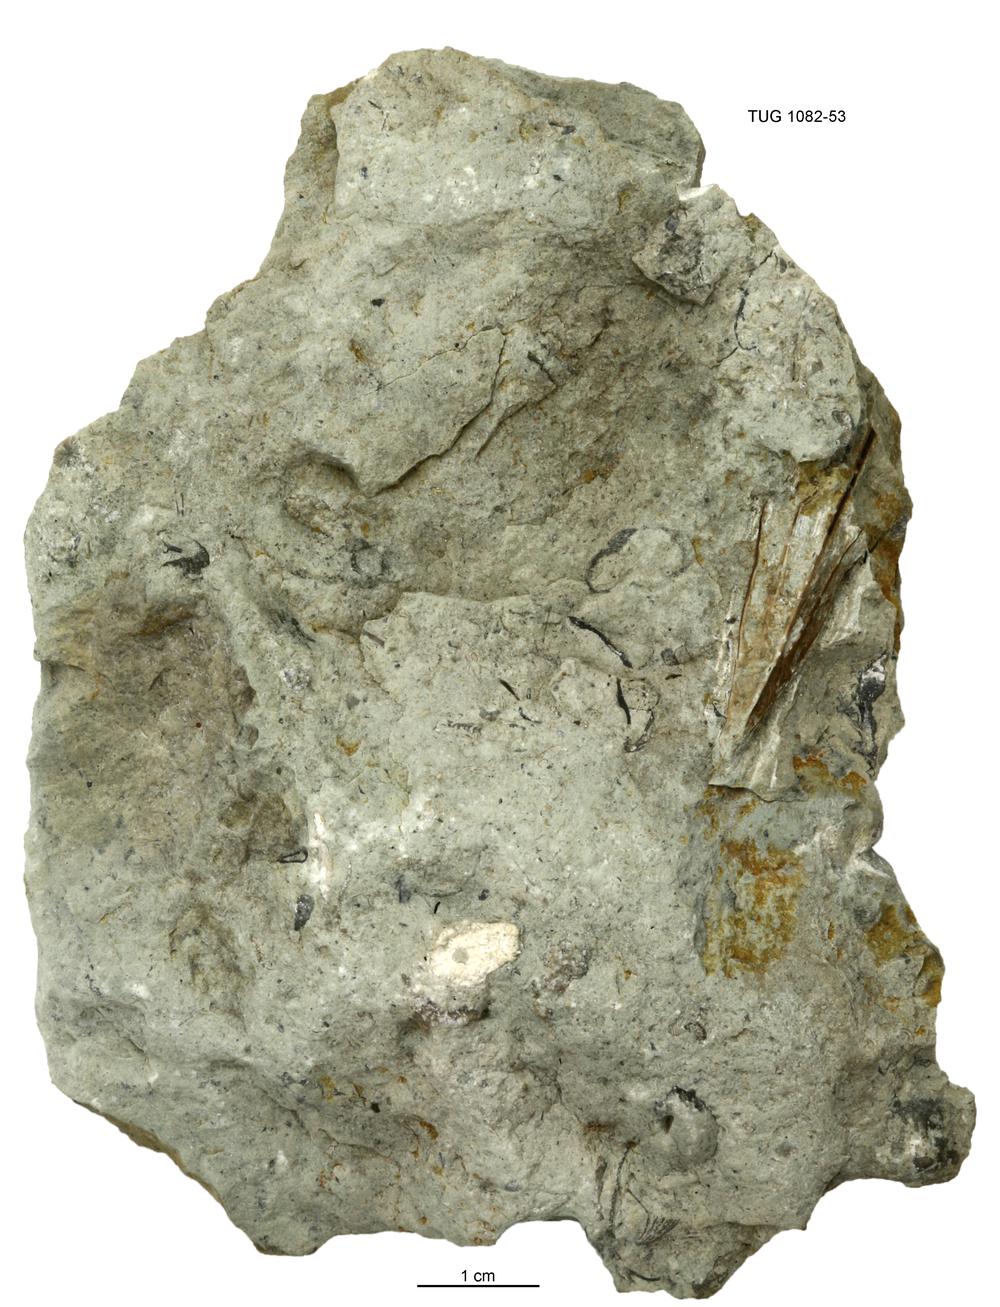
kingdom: Animalia
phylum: Cnidaria
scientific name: Cnidaria
